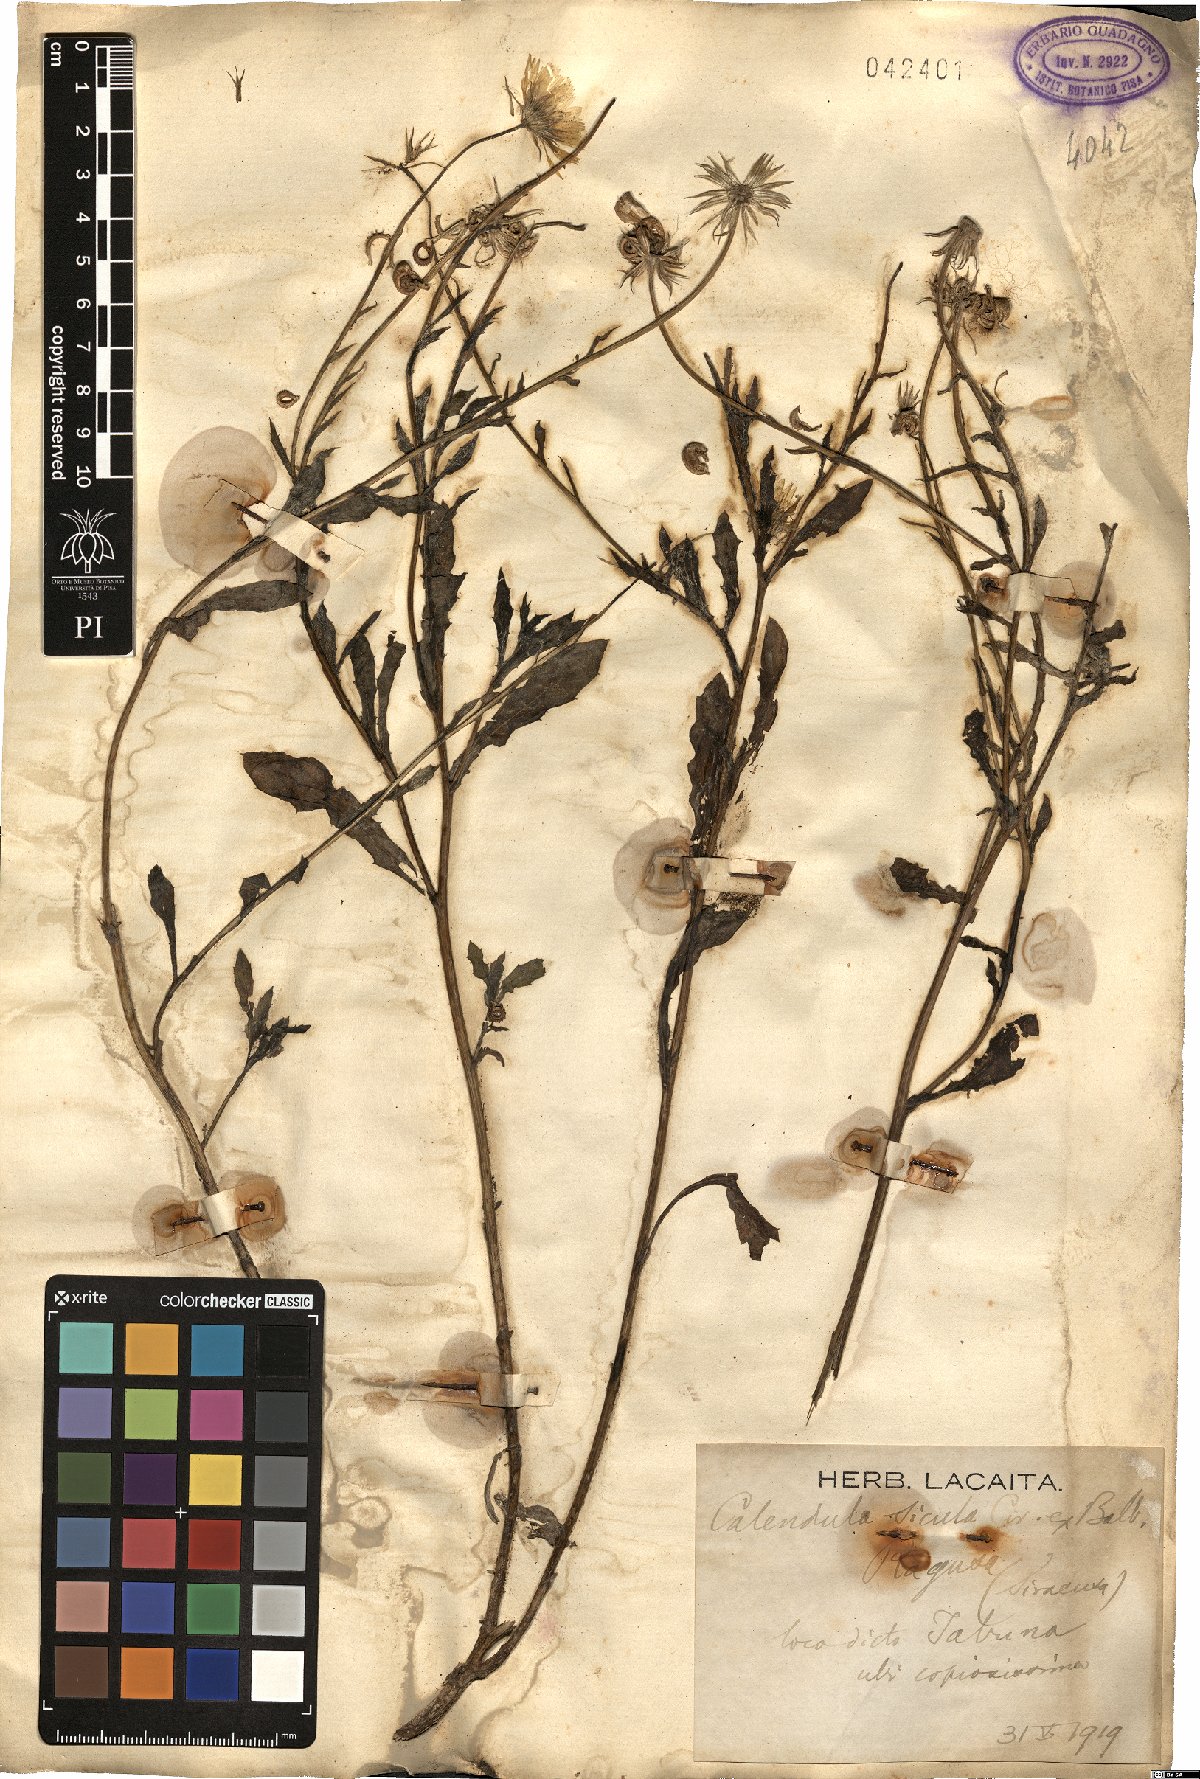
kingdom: Plantae
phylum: Tracheophyta
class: Magnoliopsida
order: Asterales
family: Asteraceae
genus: Calendula
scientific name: Calendula stellata
